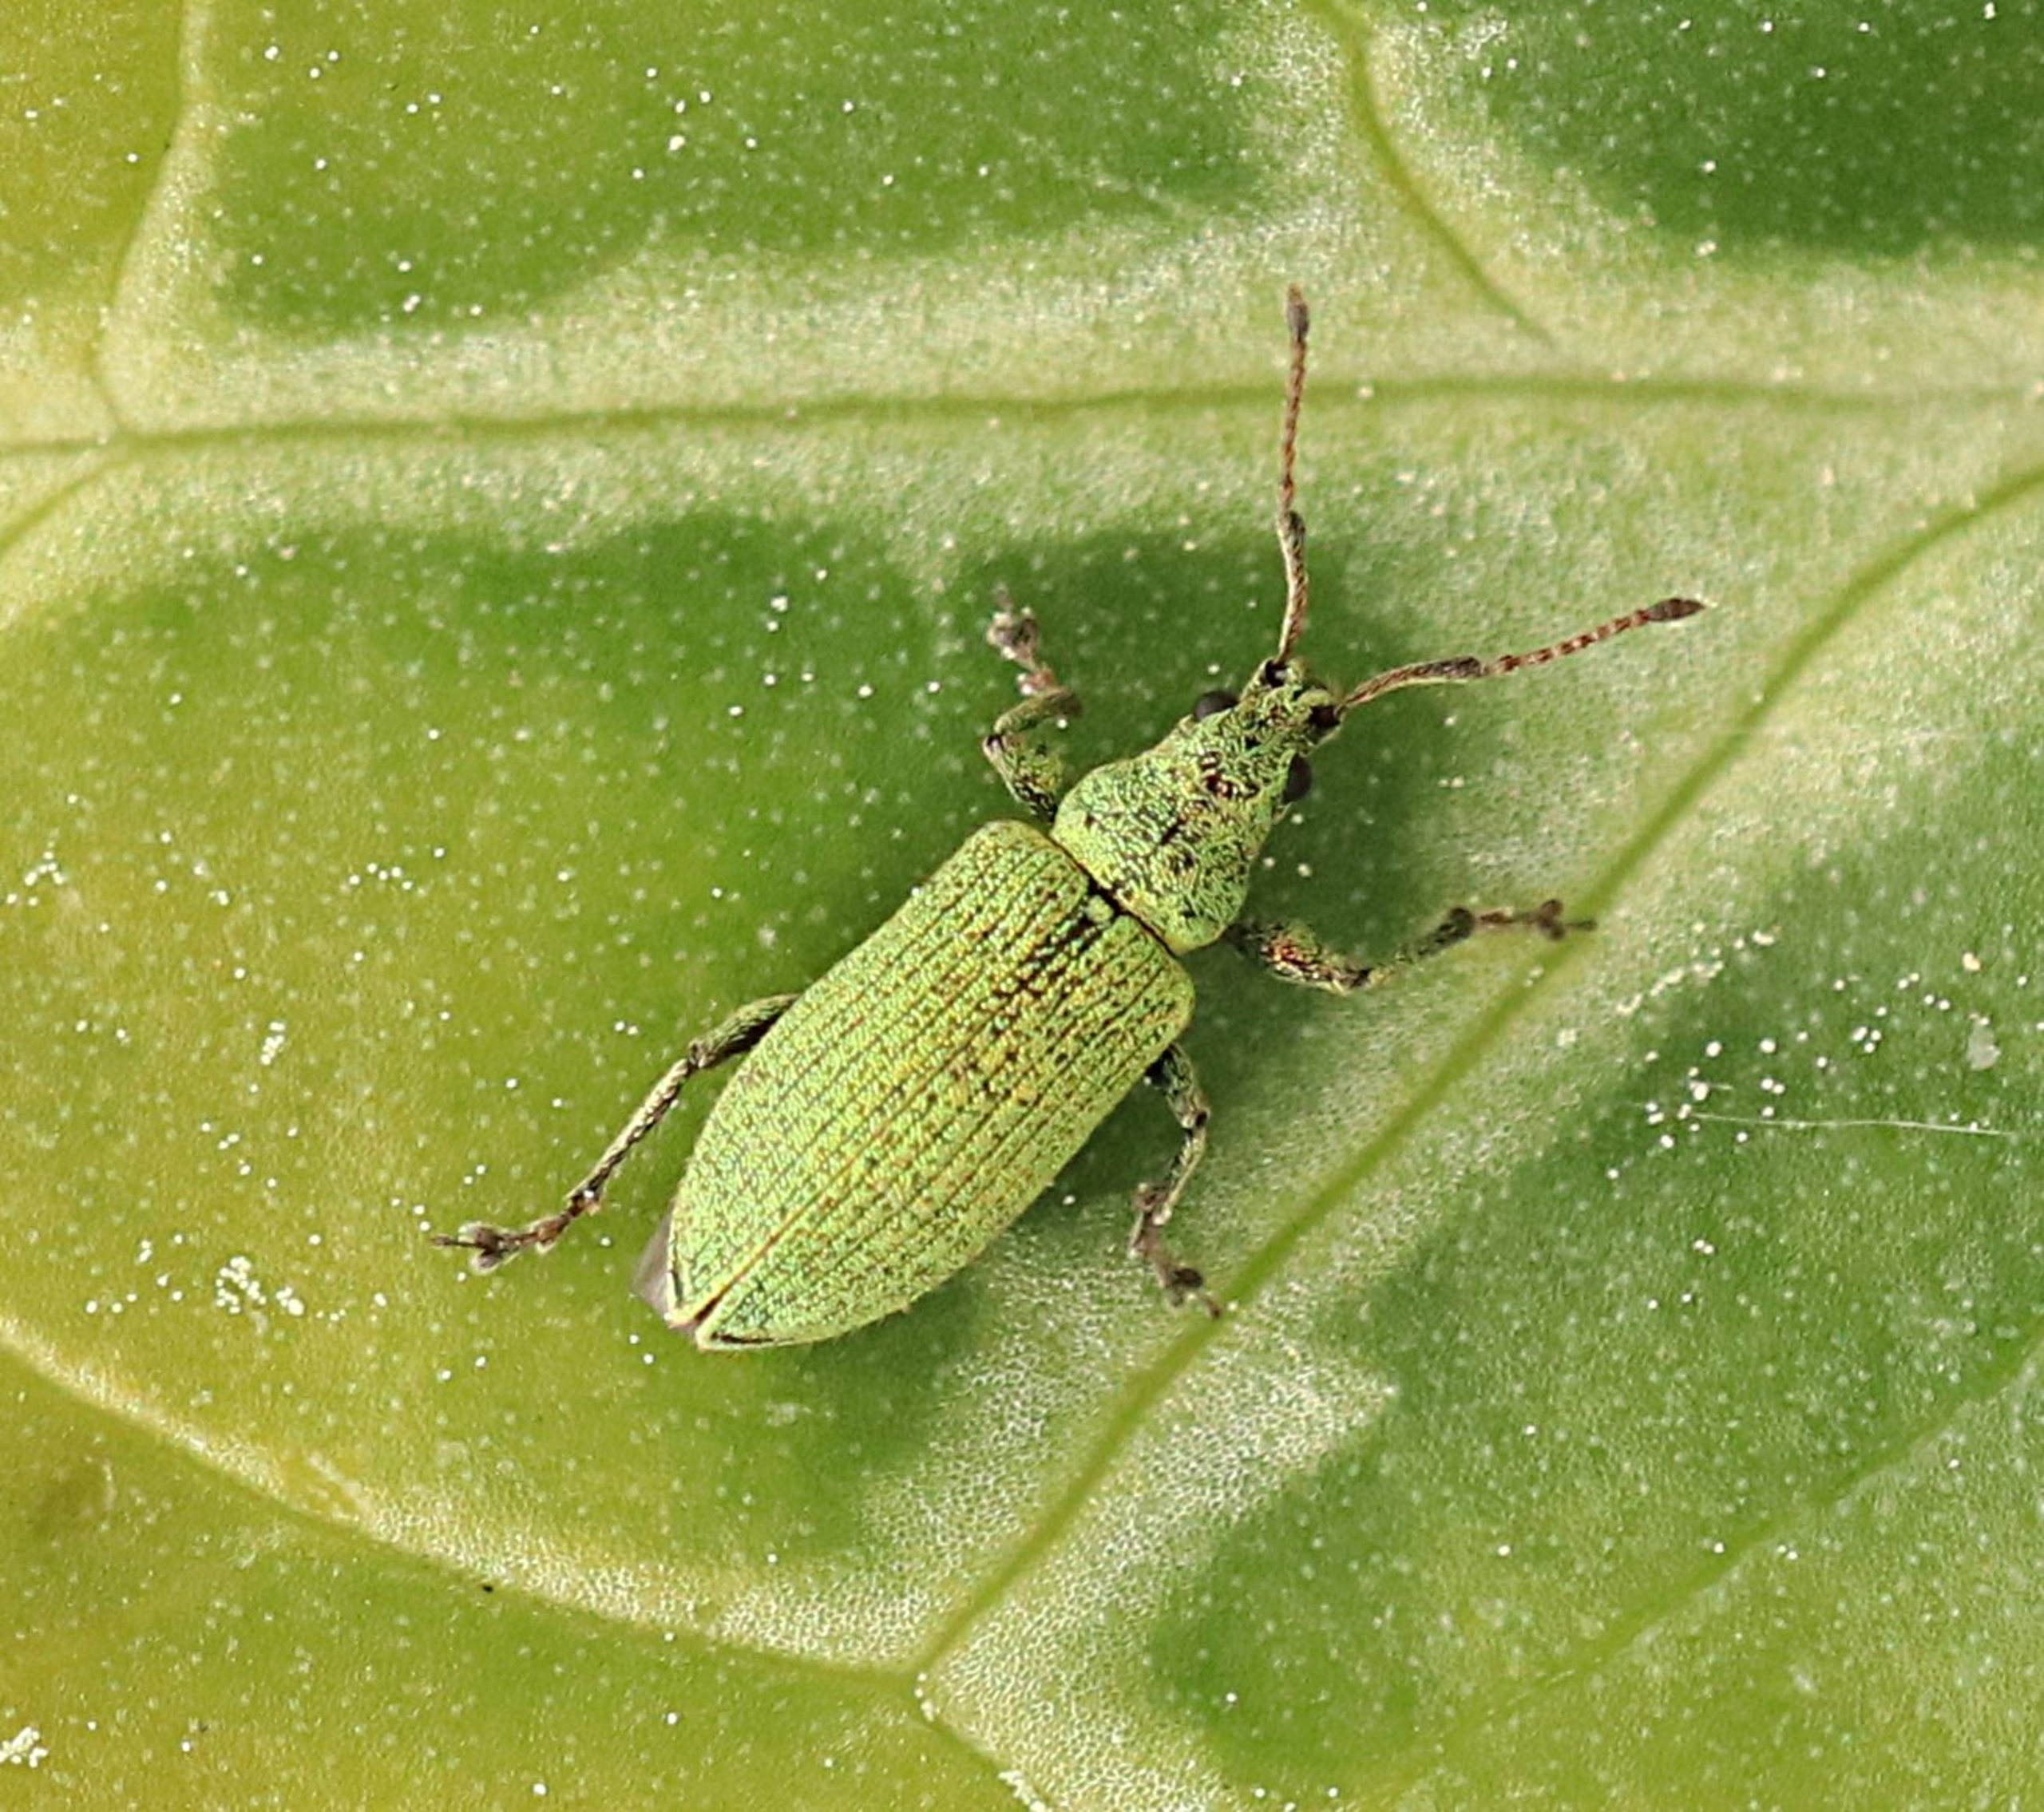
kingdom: Animalia
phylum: Arthropoda
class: Insecta
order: Coleoptera
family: Curculionidae
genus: Phyllobius
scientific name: Phyllobius maculicornis
